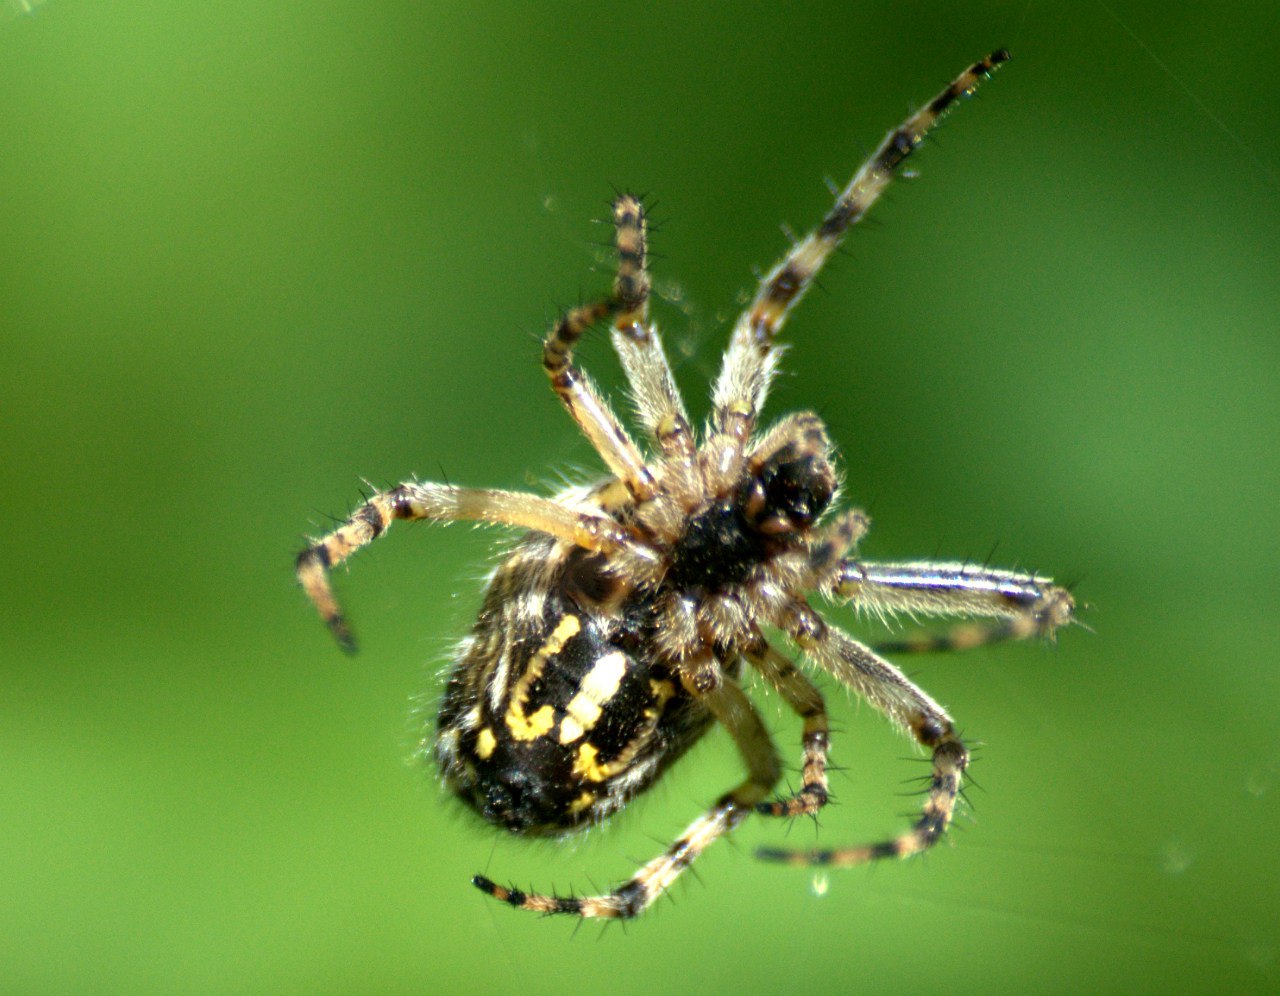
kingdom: Animalia
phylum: Arthropoda
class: Arachnida
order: Araneae
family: Araneidae
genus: Aculepeira
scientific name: Aculepeira
